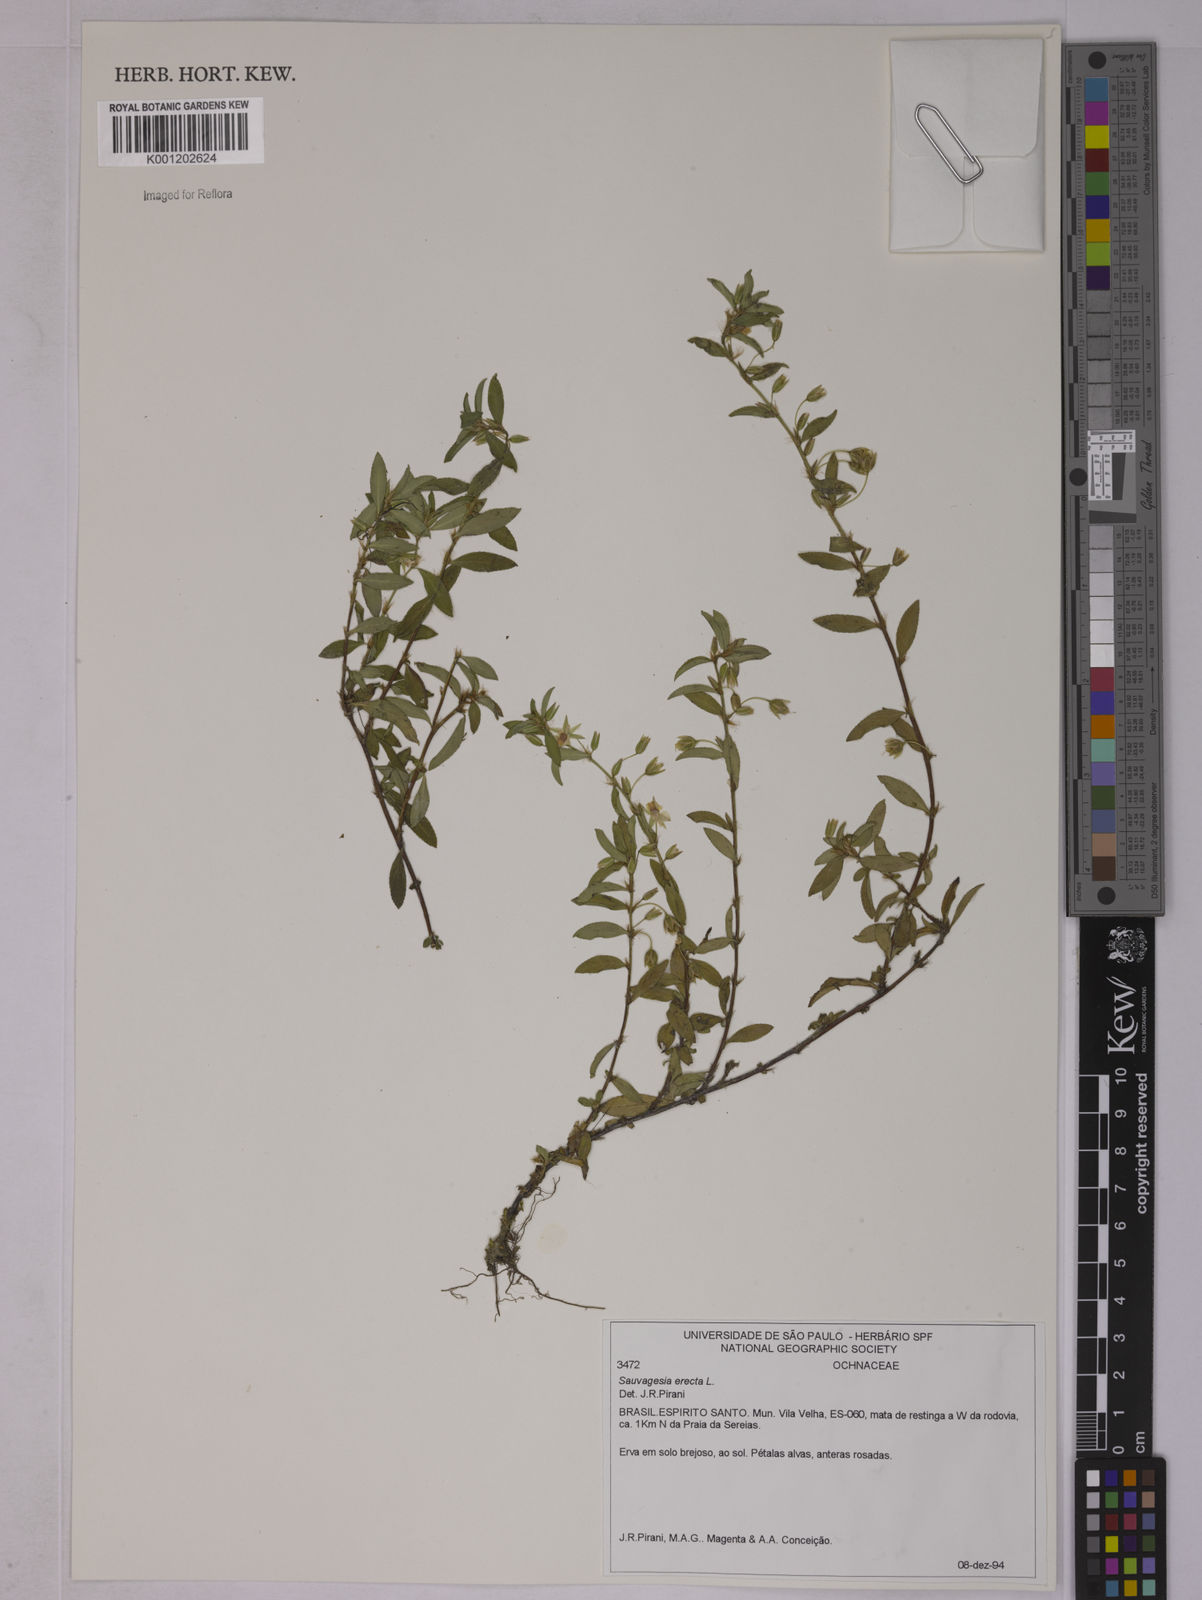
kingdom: Plantae
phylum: Tracheophyta
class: Magnoliopsida
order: Malpighiales
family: Ochnaceae
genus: Sauvagesia
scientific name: Sauvagesia erecta
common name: Creole tea
